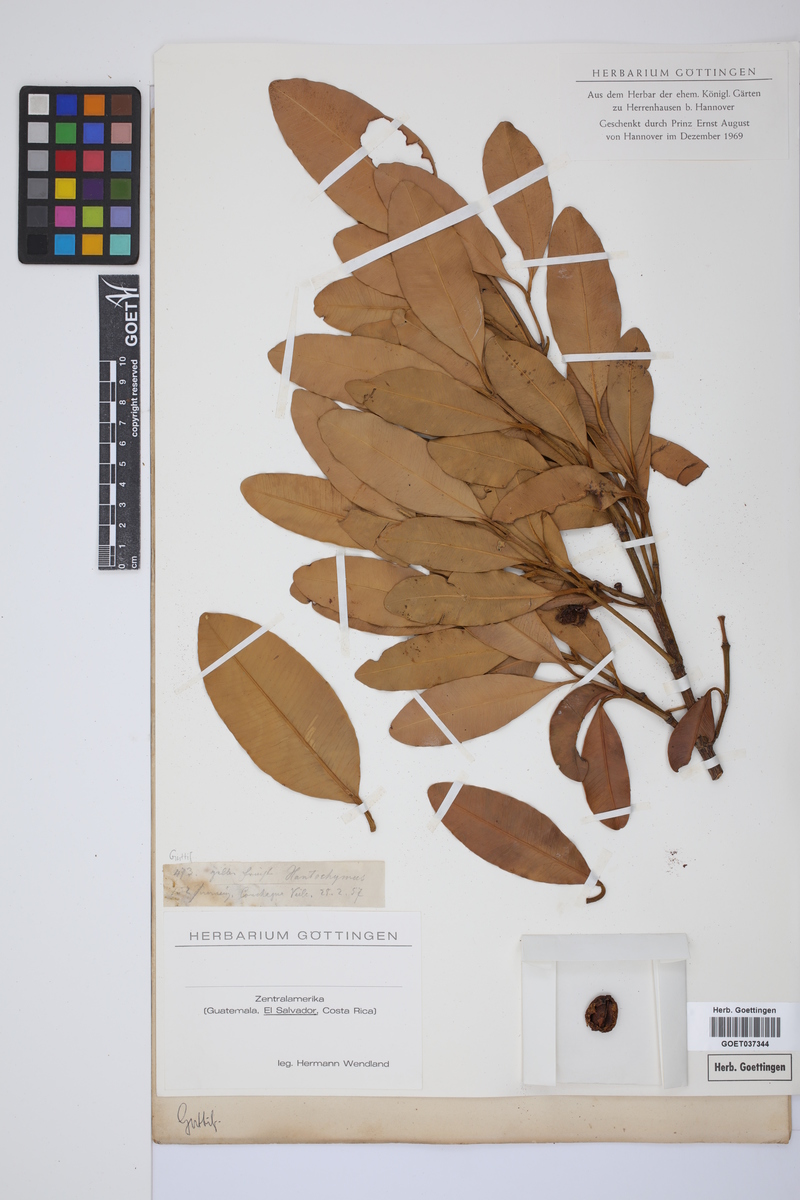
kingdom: Plantae
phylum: Tracheophyta
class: Magnoliopsida
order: Malpighiales
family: Clusiaceae
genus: Garcinia
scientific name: Garcinia
